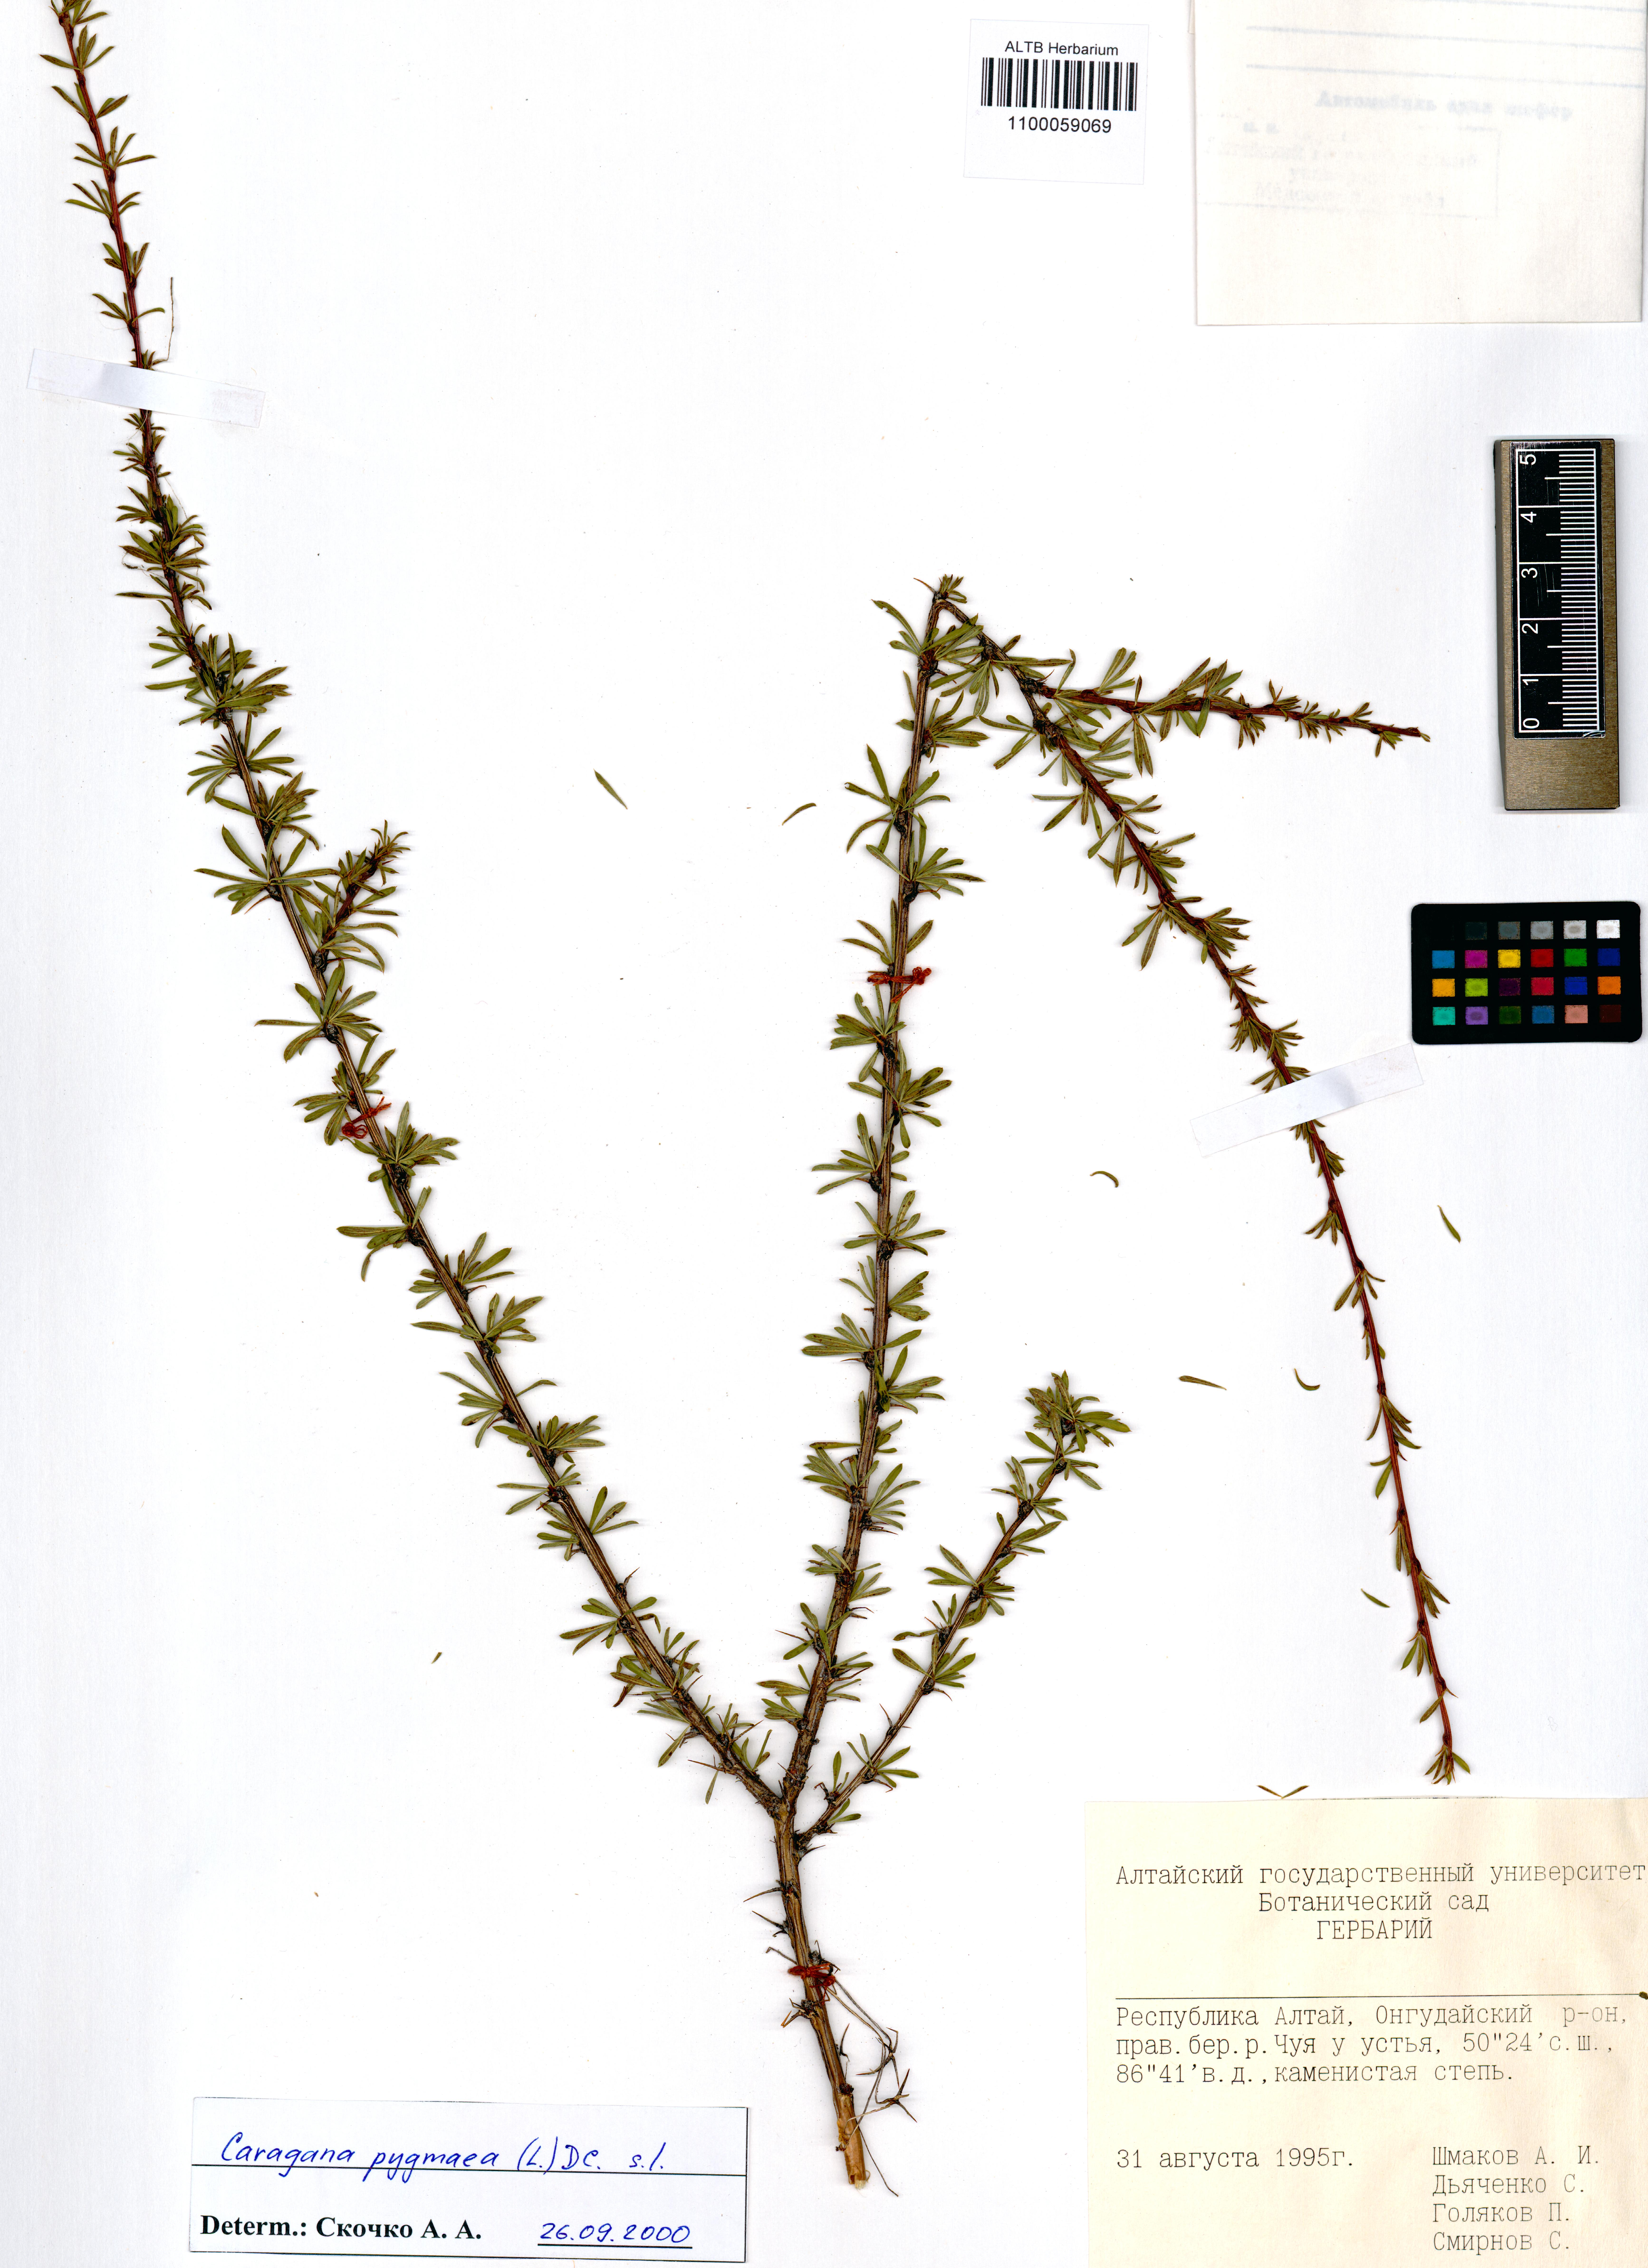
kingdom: Plantae
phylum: Tracheophyta
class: Magnoliopsida
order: Fabales
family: Fabaceae
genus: Caragana
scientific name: Caragana pygmaea
